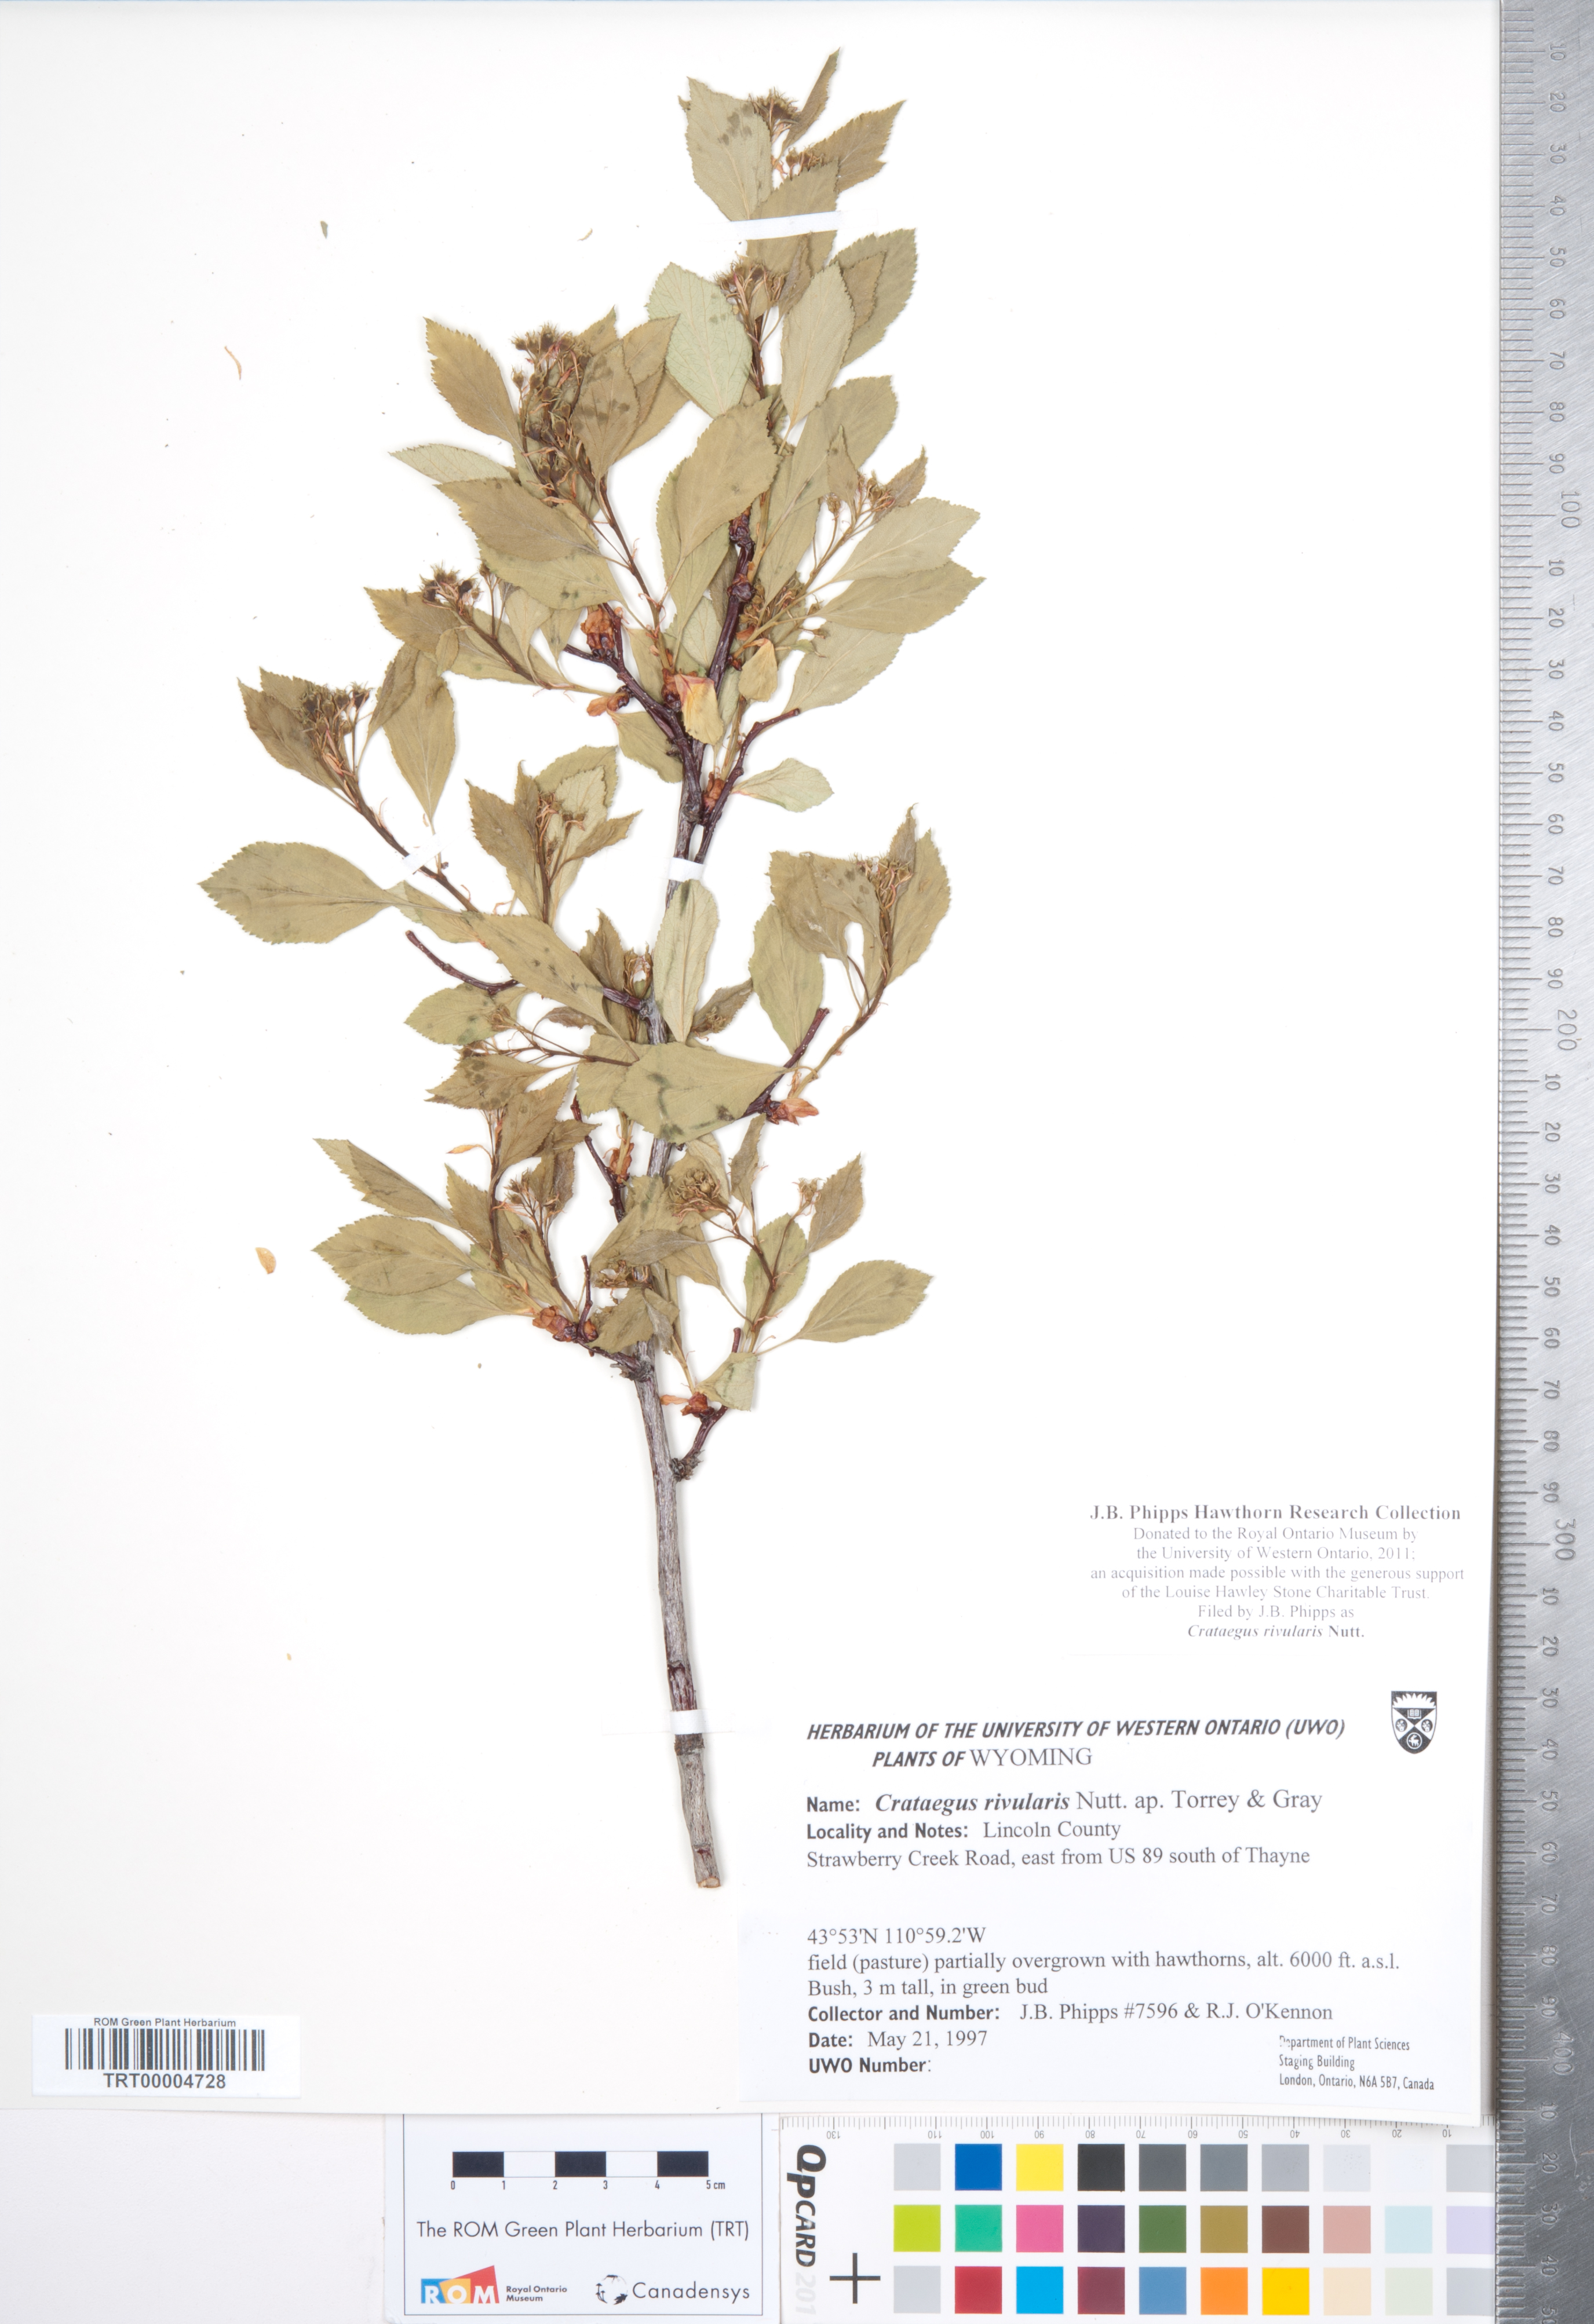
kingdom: Plantae
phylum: Tracheophyta
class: Magnoliopsida
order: Rosales
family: Rosaceae
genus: Crataegus
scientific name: Crataegus rivularis
